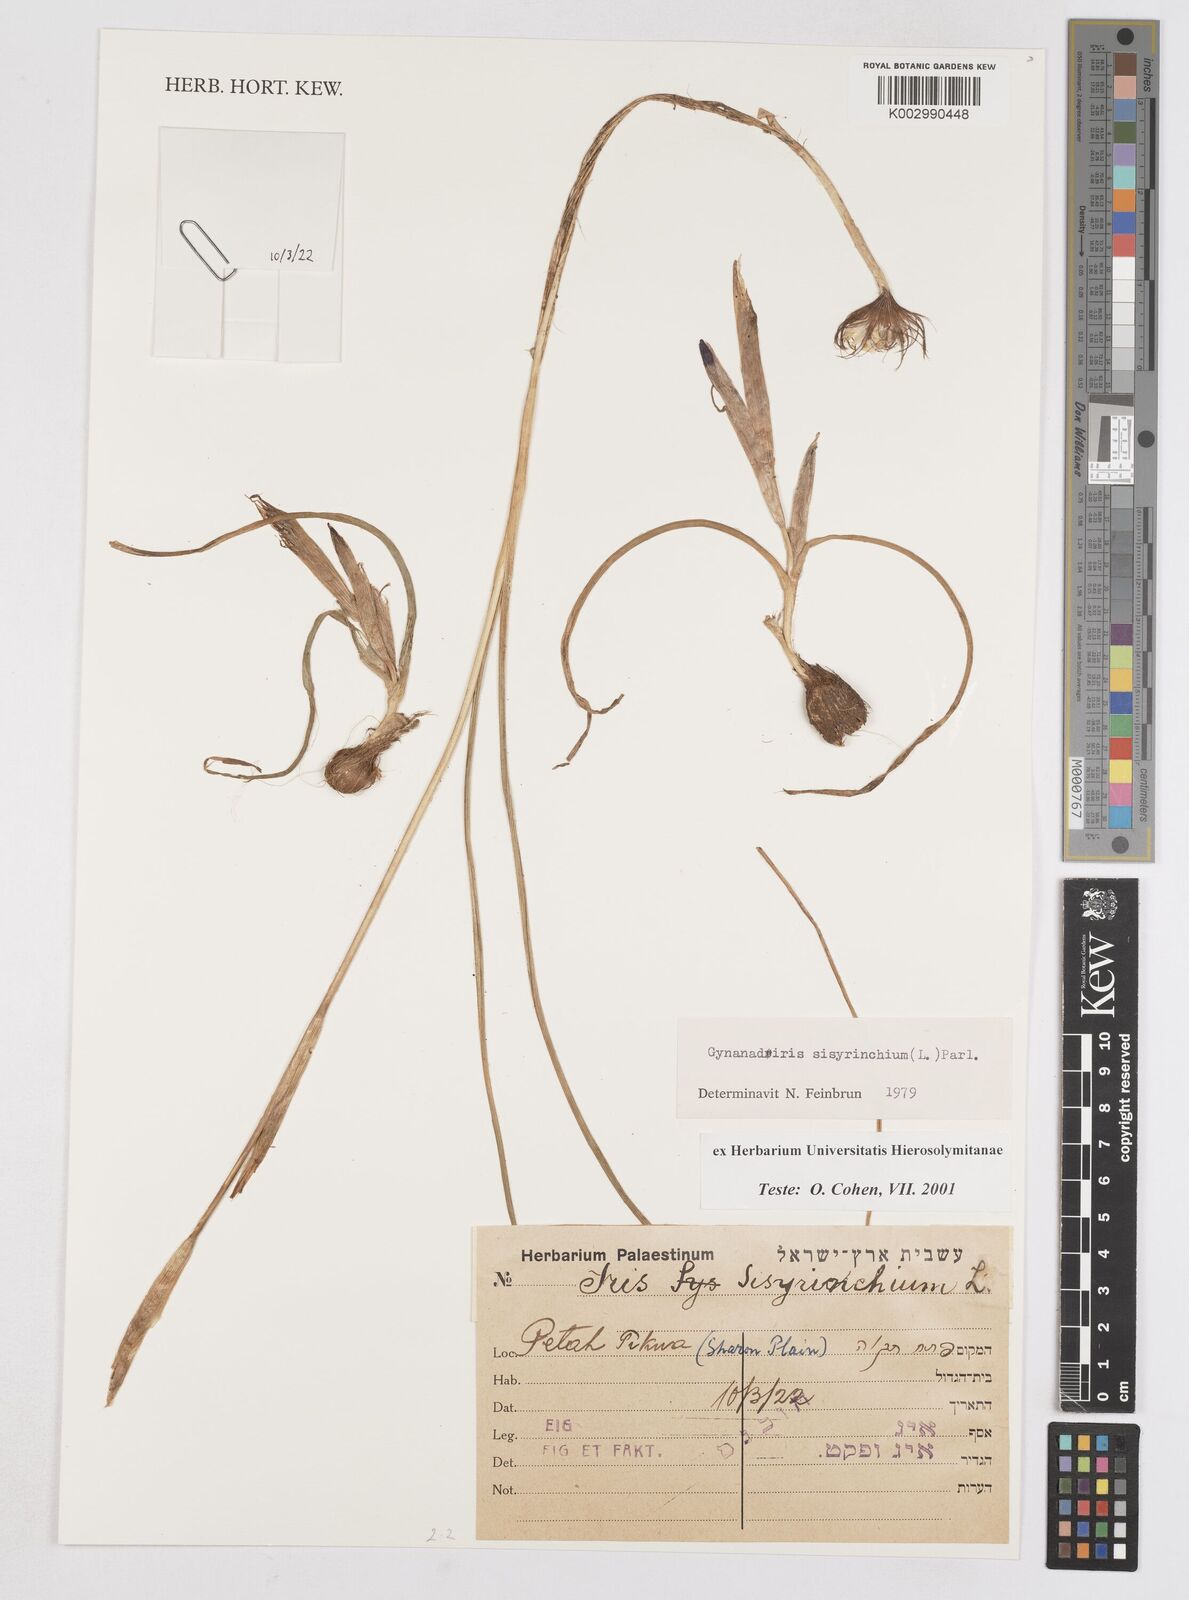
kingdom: Plantae
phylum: Tracheophyta
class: Liliopsida
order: Asparagales
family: Iridaceae
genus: Moraea
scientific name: Moraea sisyrinchium
